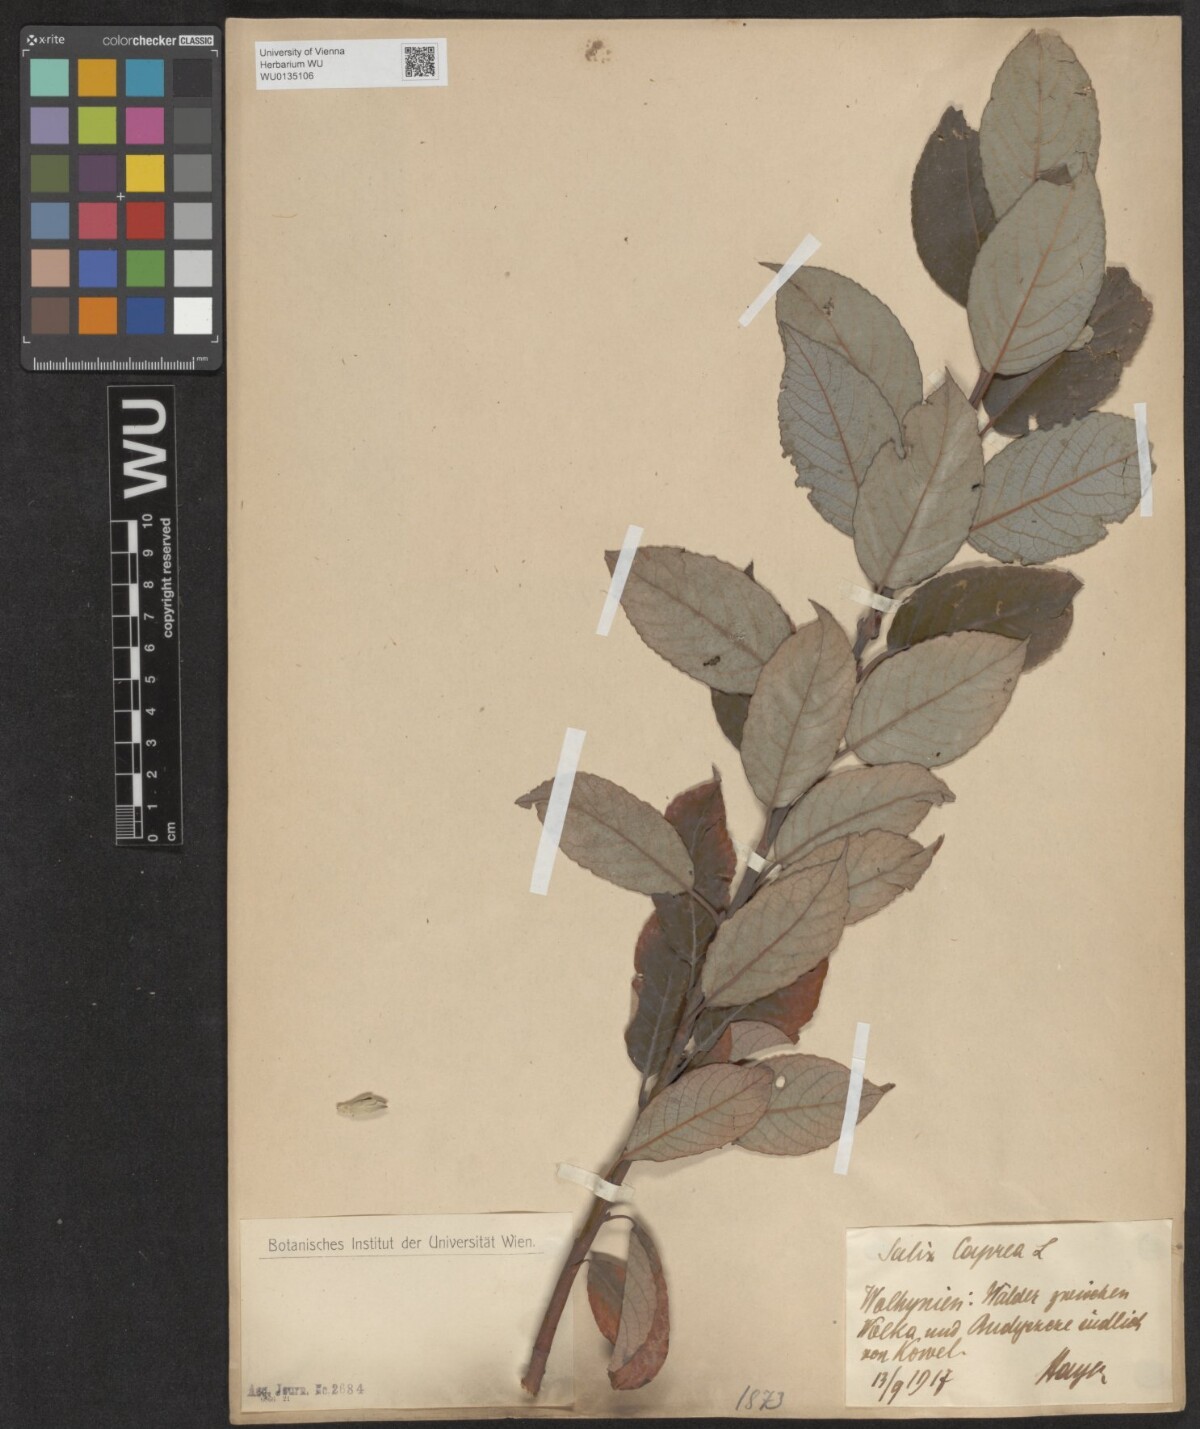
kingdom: Plantae
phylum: Tracheophyta
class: Magnoliopsida
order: Malpighiales
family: Salicaceae
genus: Salix
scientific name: Salix caprea
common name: Goat willow
